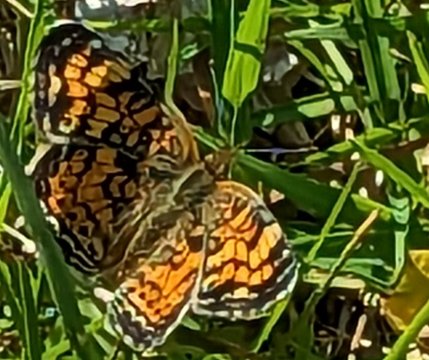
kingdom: Animalia
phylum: Arthropoda
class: Insecta
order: Lepidoptera
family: Nymphalidae
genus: Phyciodes
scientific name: Phyciodes tharos
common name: Pearl Crescent
